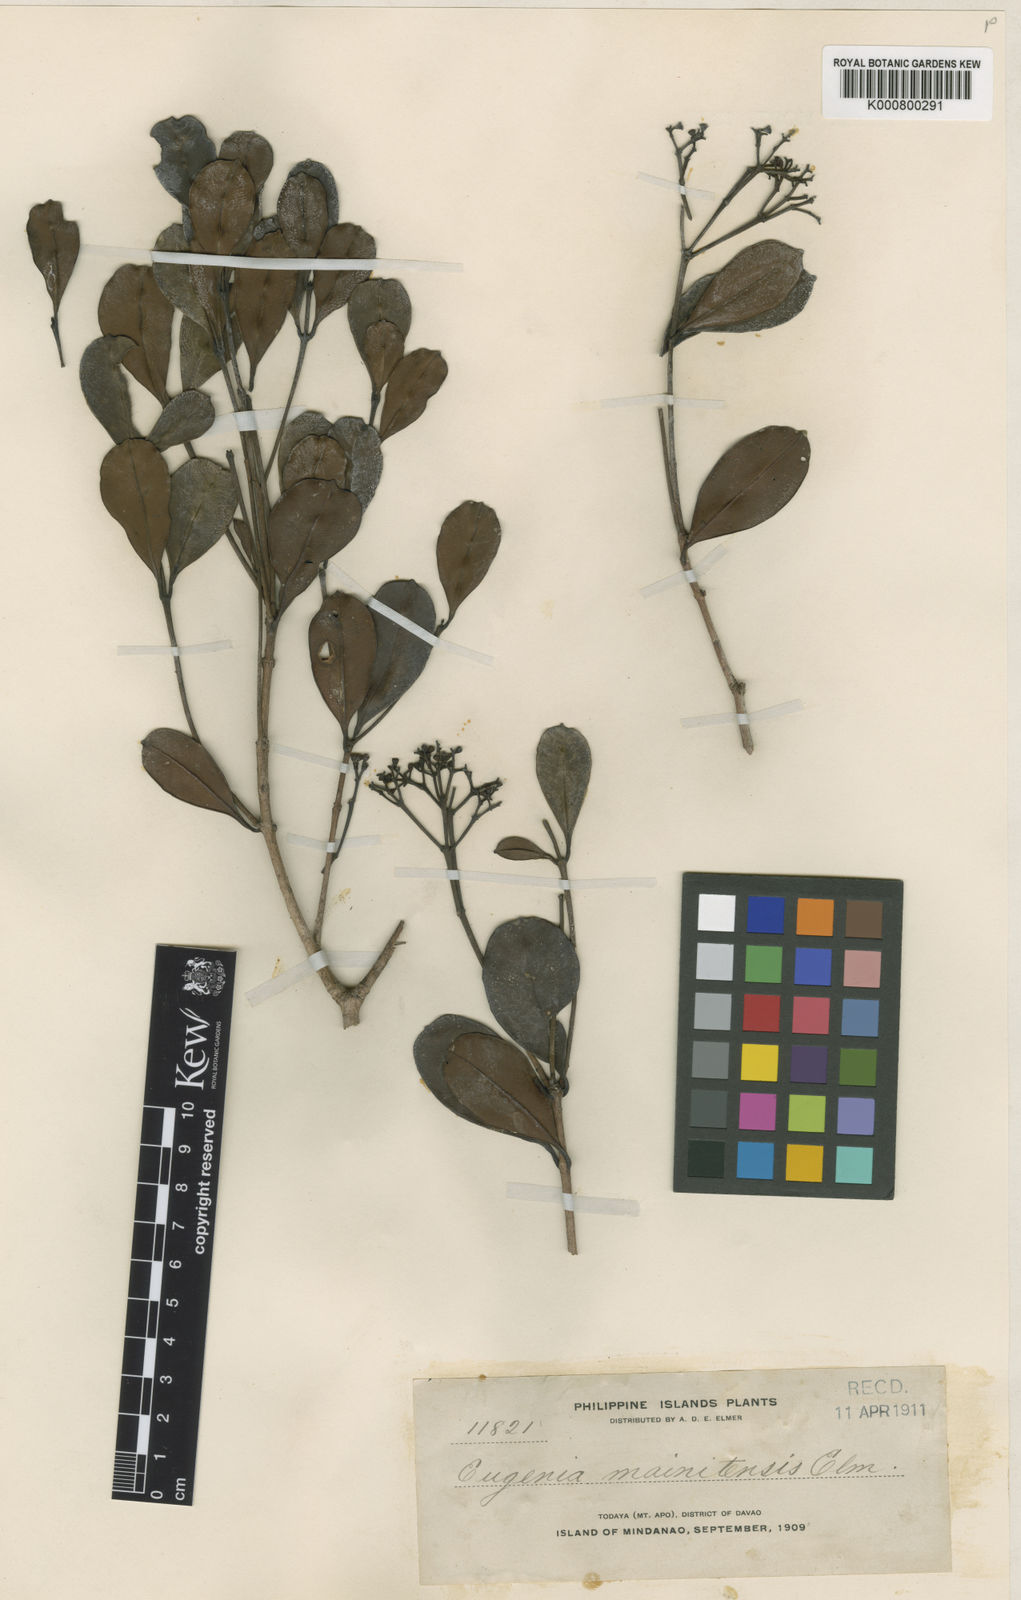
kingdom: Plantae
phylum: Tracheophyta
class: Magnoliopsida
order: Myrtales
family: Myrtaceae
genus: Syzygium
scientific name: Syzygium mainitense
